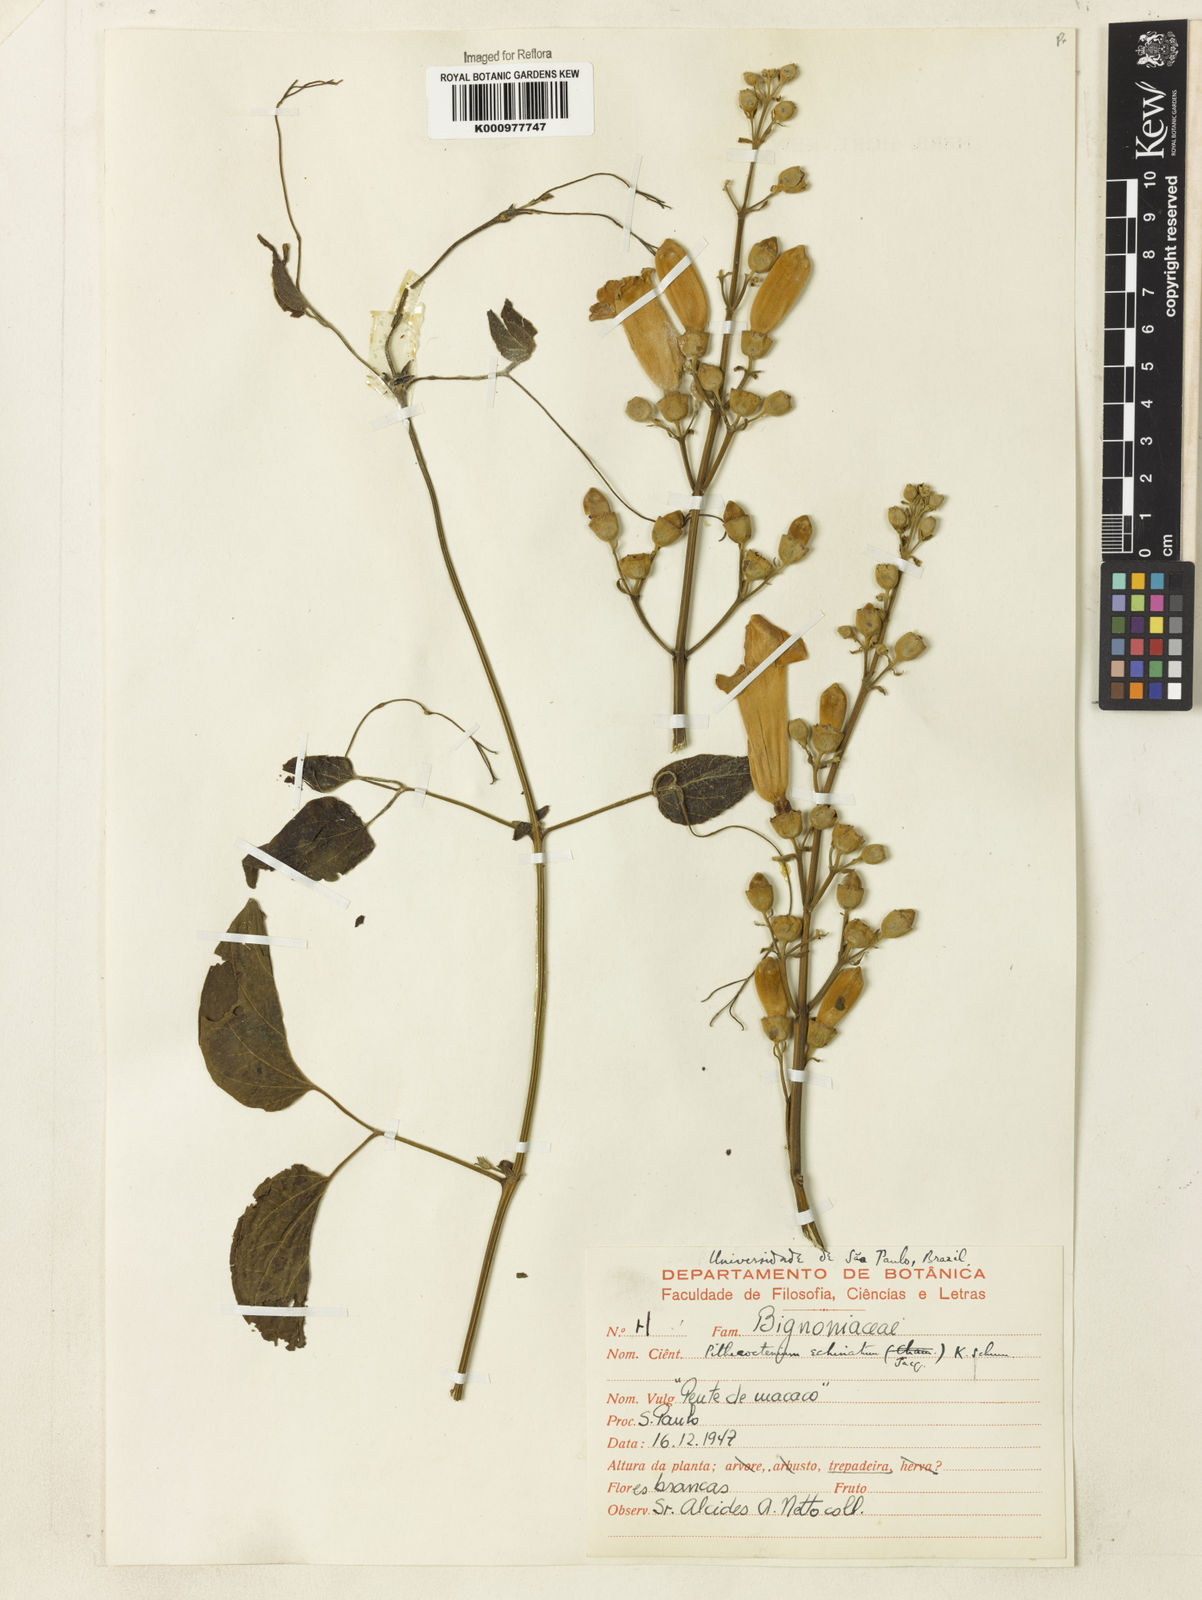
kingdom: Plantae
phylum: Tracheophyta
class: Magnoliopsida
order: Lamiales
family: Bignoniaceae
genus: Amphilophium
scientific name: Amphilophium crucigerum
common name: Monkey comb
